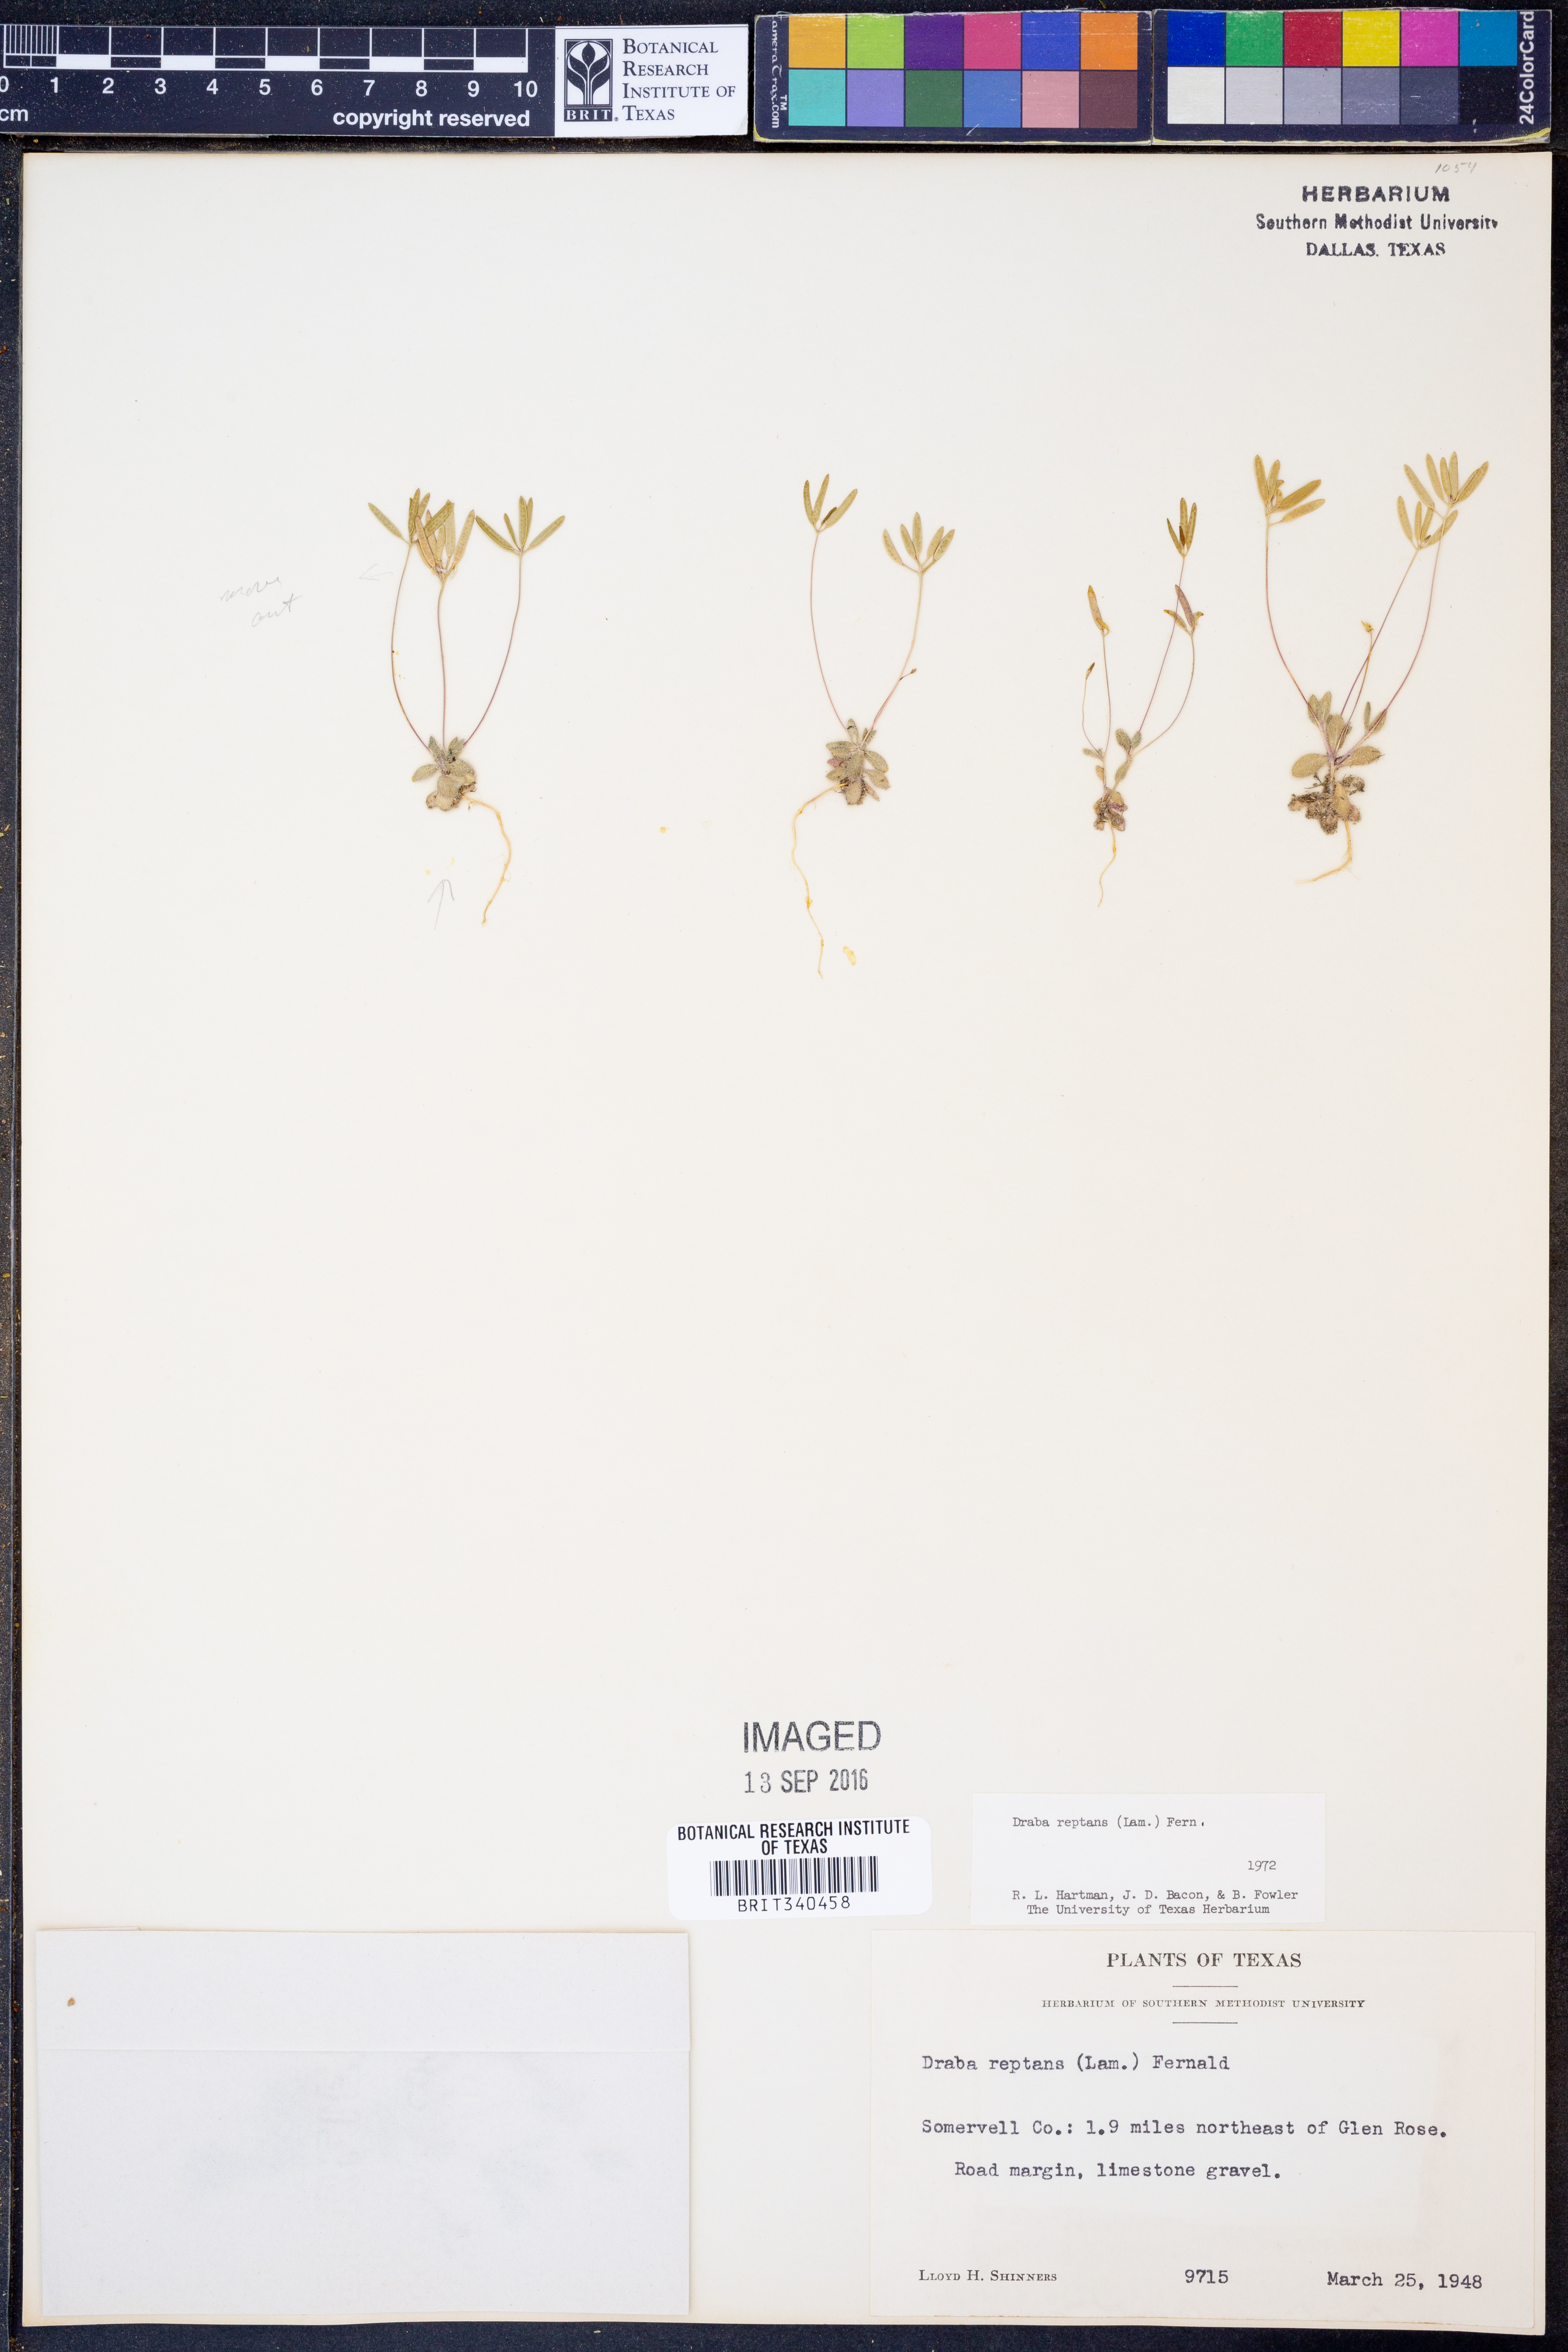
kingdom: Plantae
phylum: Tracheophyta
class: Magnoliopsida
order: Brassicales
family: Brassicaceae
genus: Tomostima
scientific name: Tomostima reptans
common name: Carolina draba
